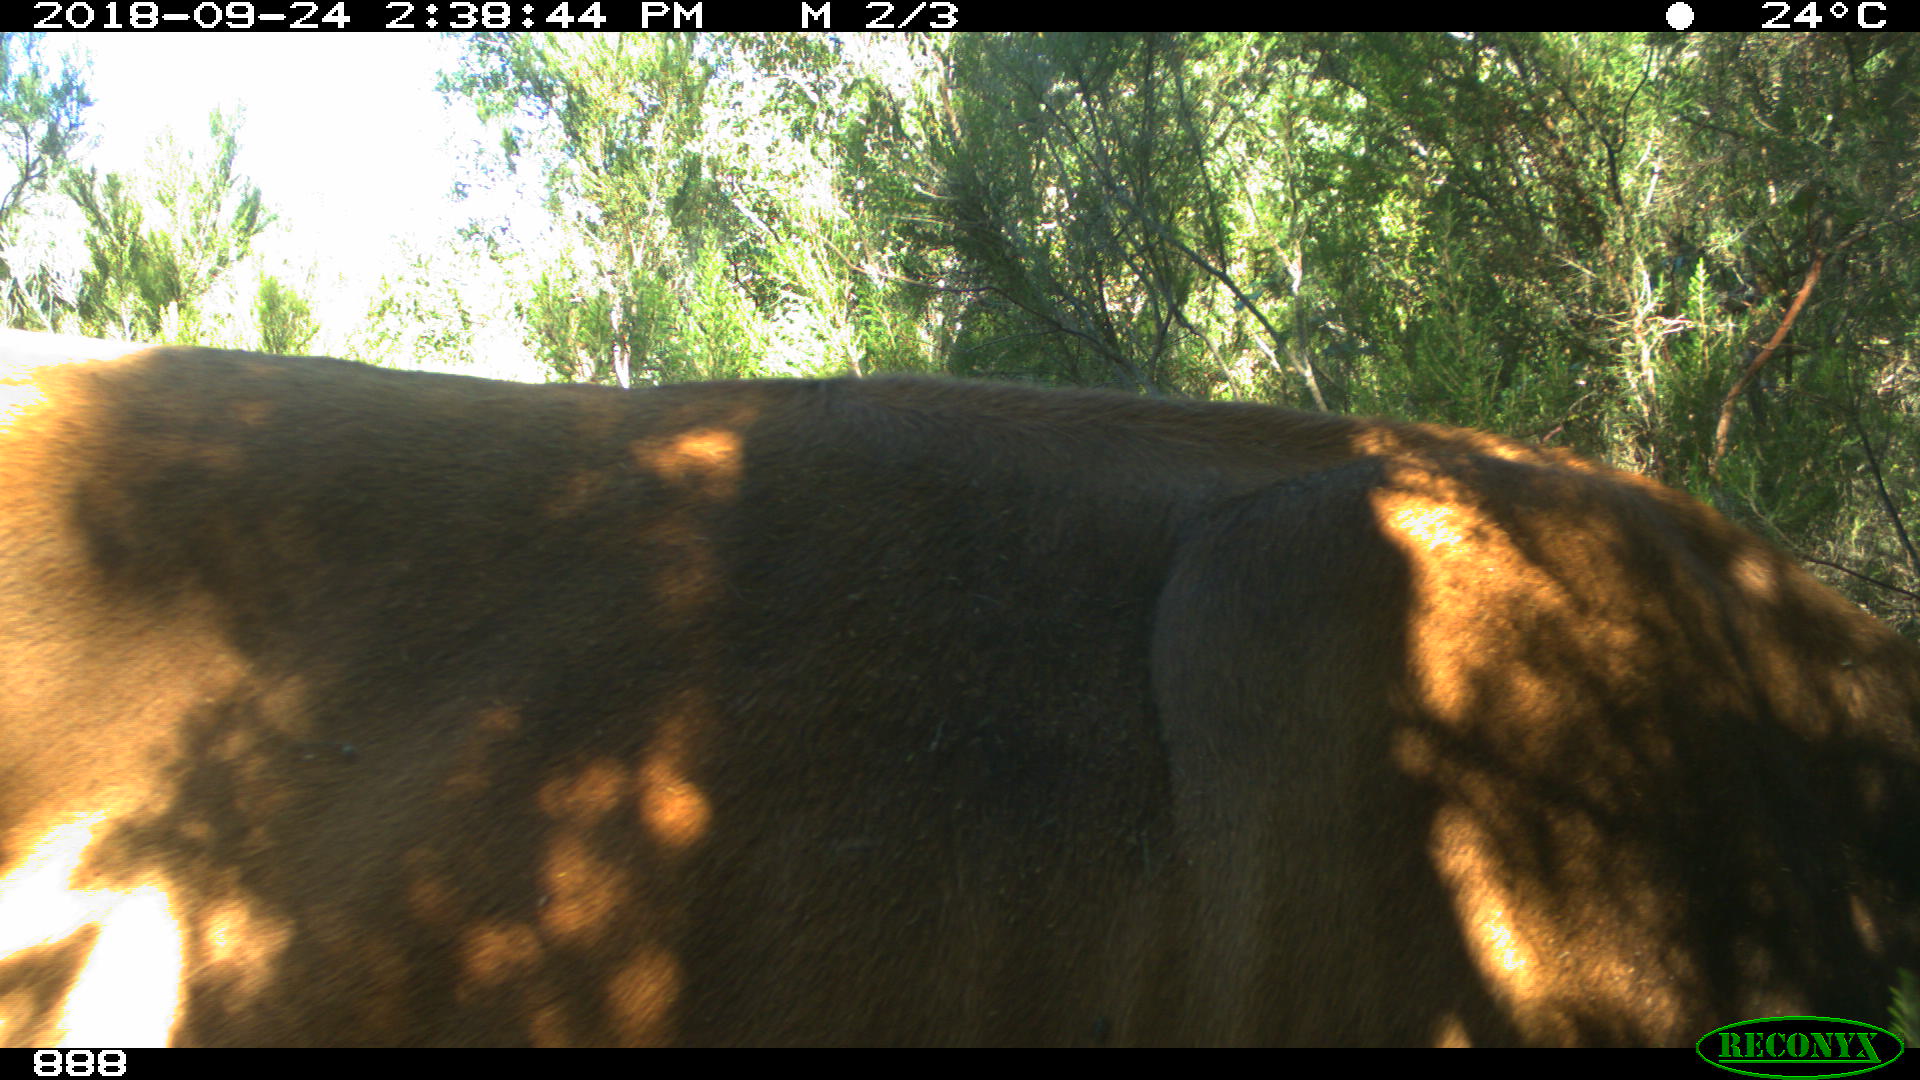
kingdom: Animalia
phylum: Chordata
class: Mammalia
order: Artiodactyla
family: Bovidae
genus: Bos
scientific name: Bos taurus
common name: Domesticated cattle
